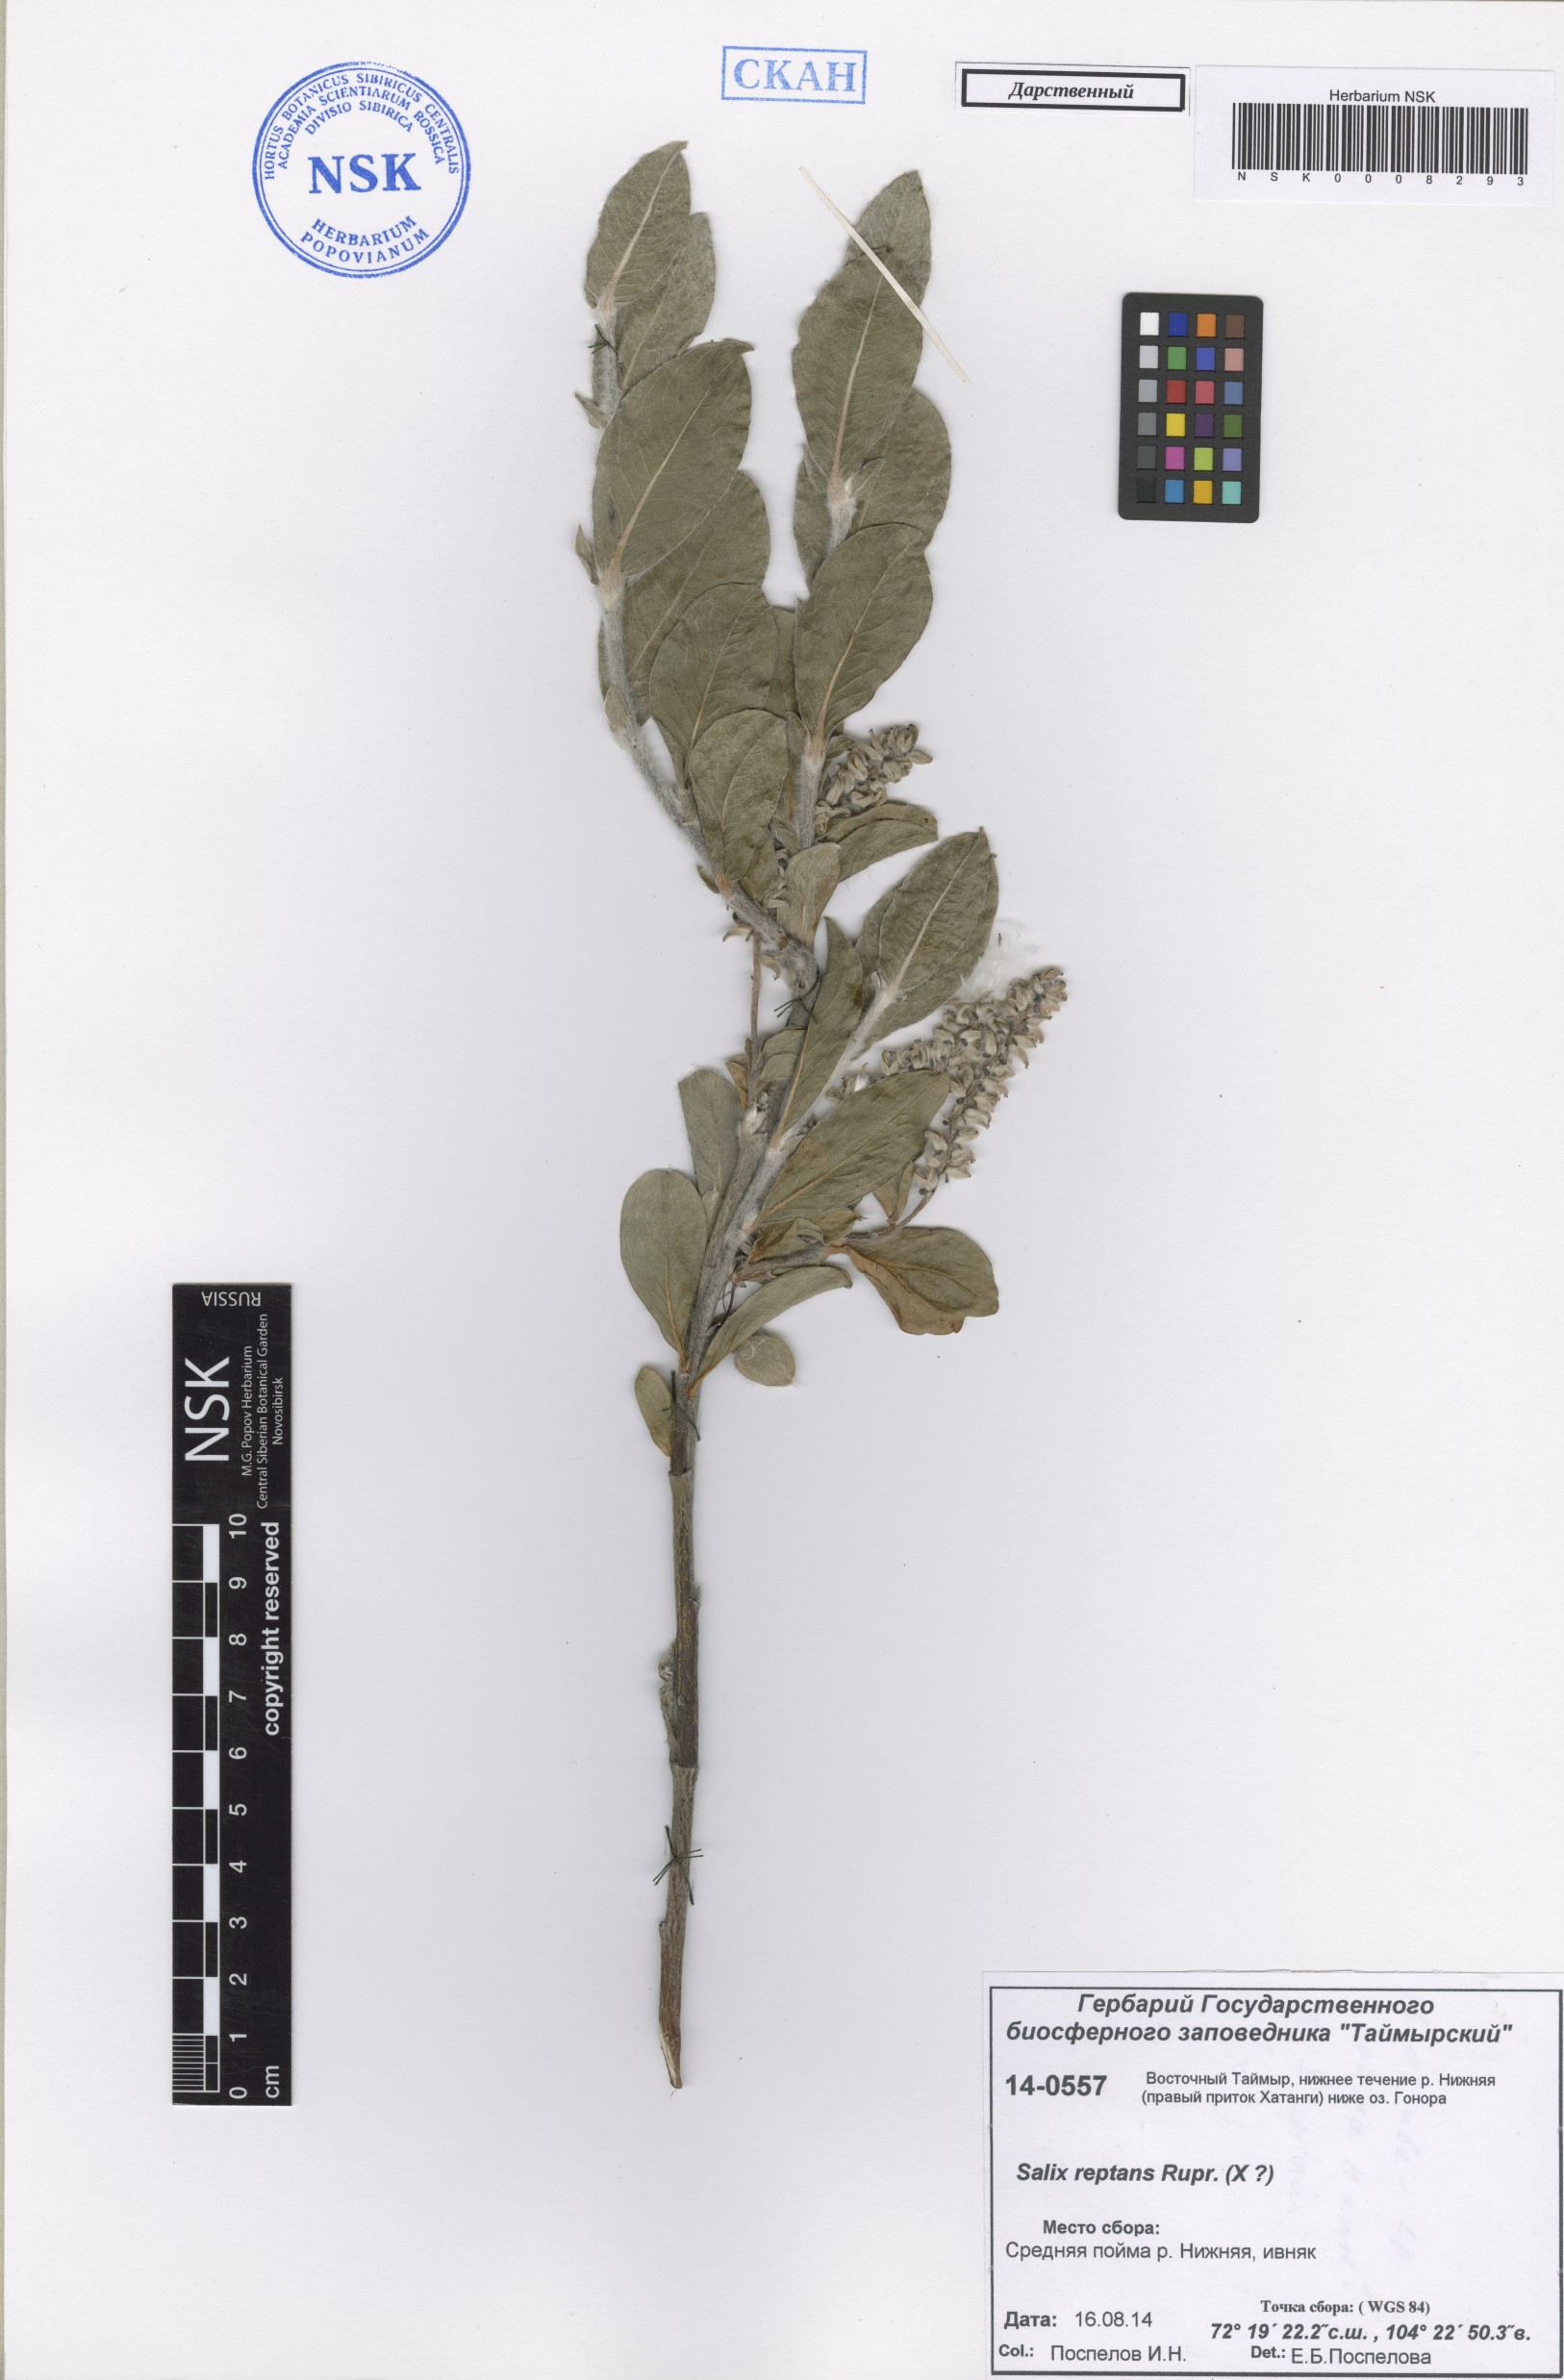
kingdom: Plantae
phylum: Tracheophyta
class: Magnoliopsida
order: Malpighiales
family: Salicaceae
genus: Salix
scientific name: Salix reptans
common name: Arctic creeping willow
